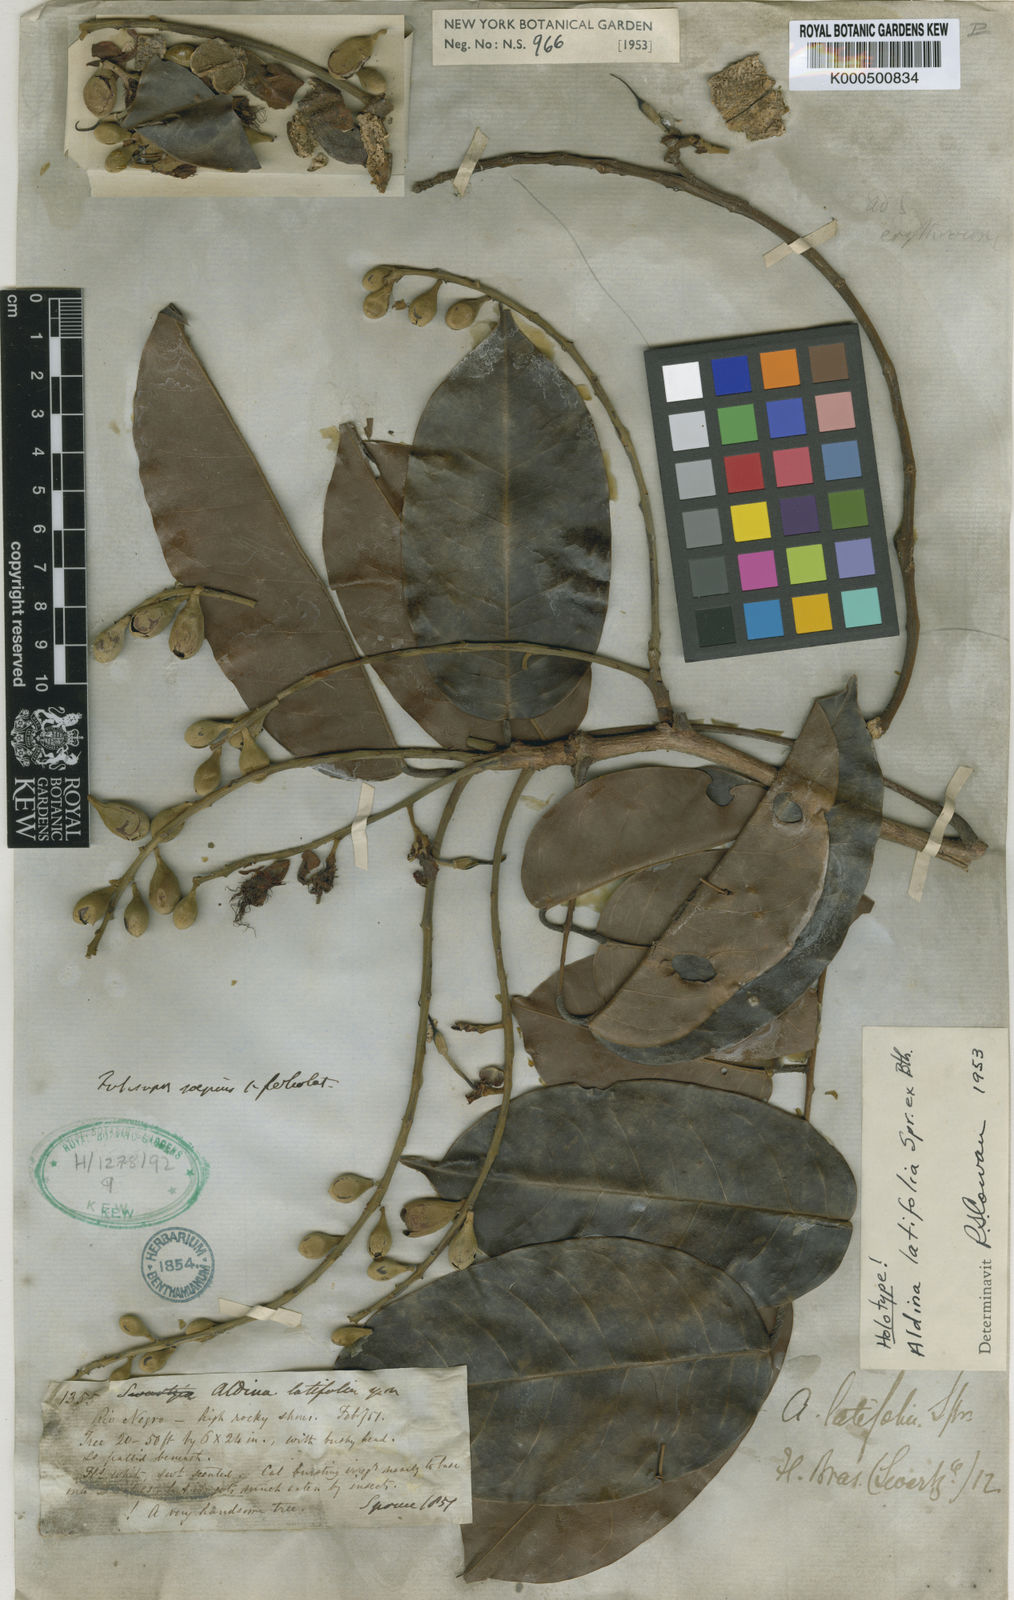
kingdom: Plantae
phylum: Tracheophyta
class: Magnoliopsida
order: Fabales
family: Fabaceae
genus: Aldina
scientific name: Aldina latifolia
